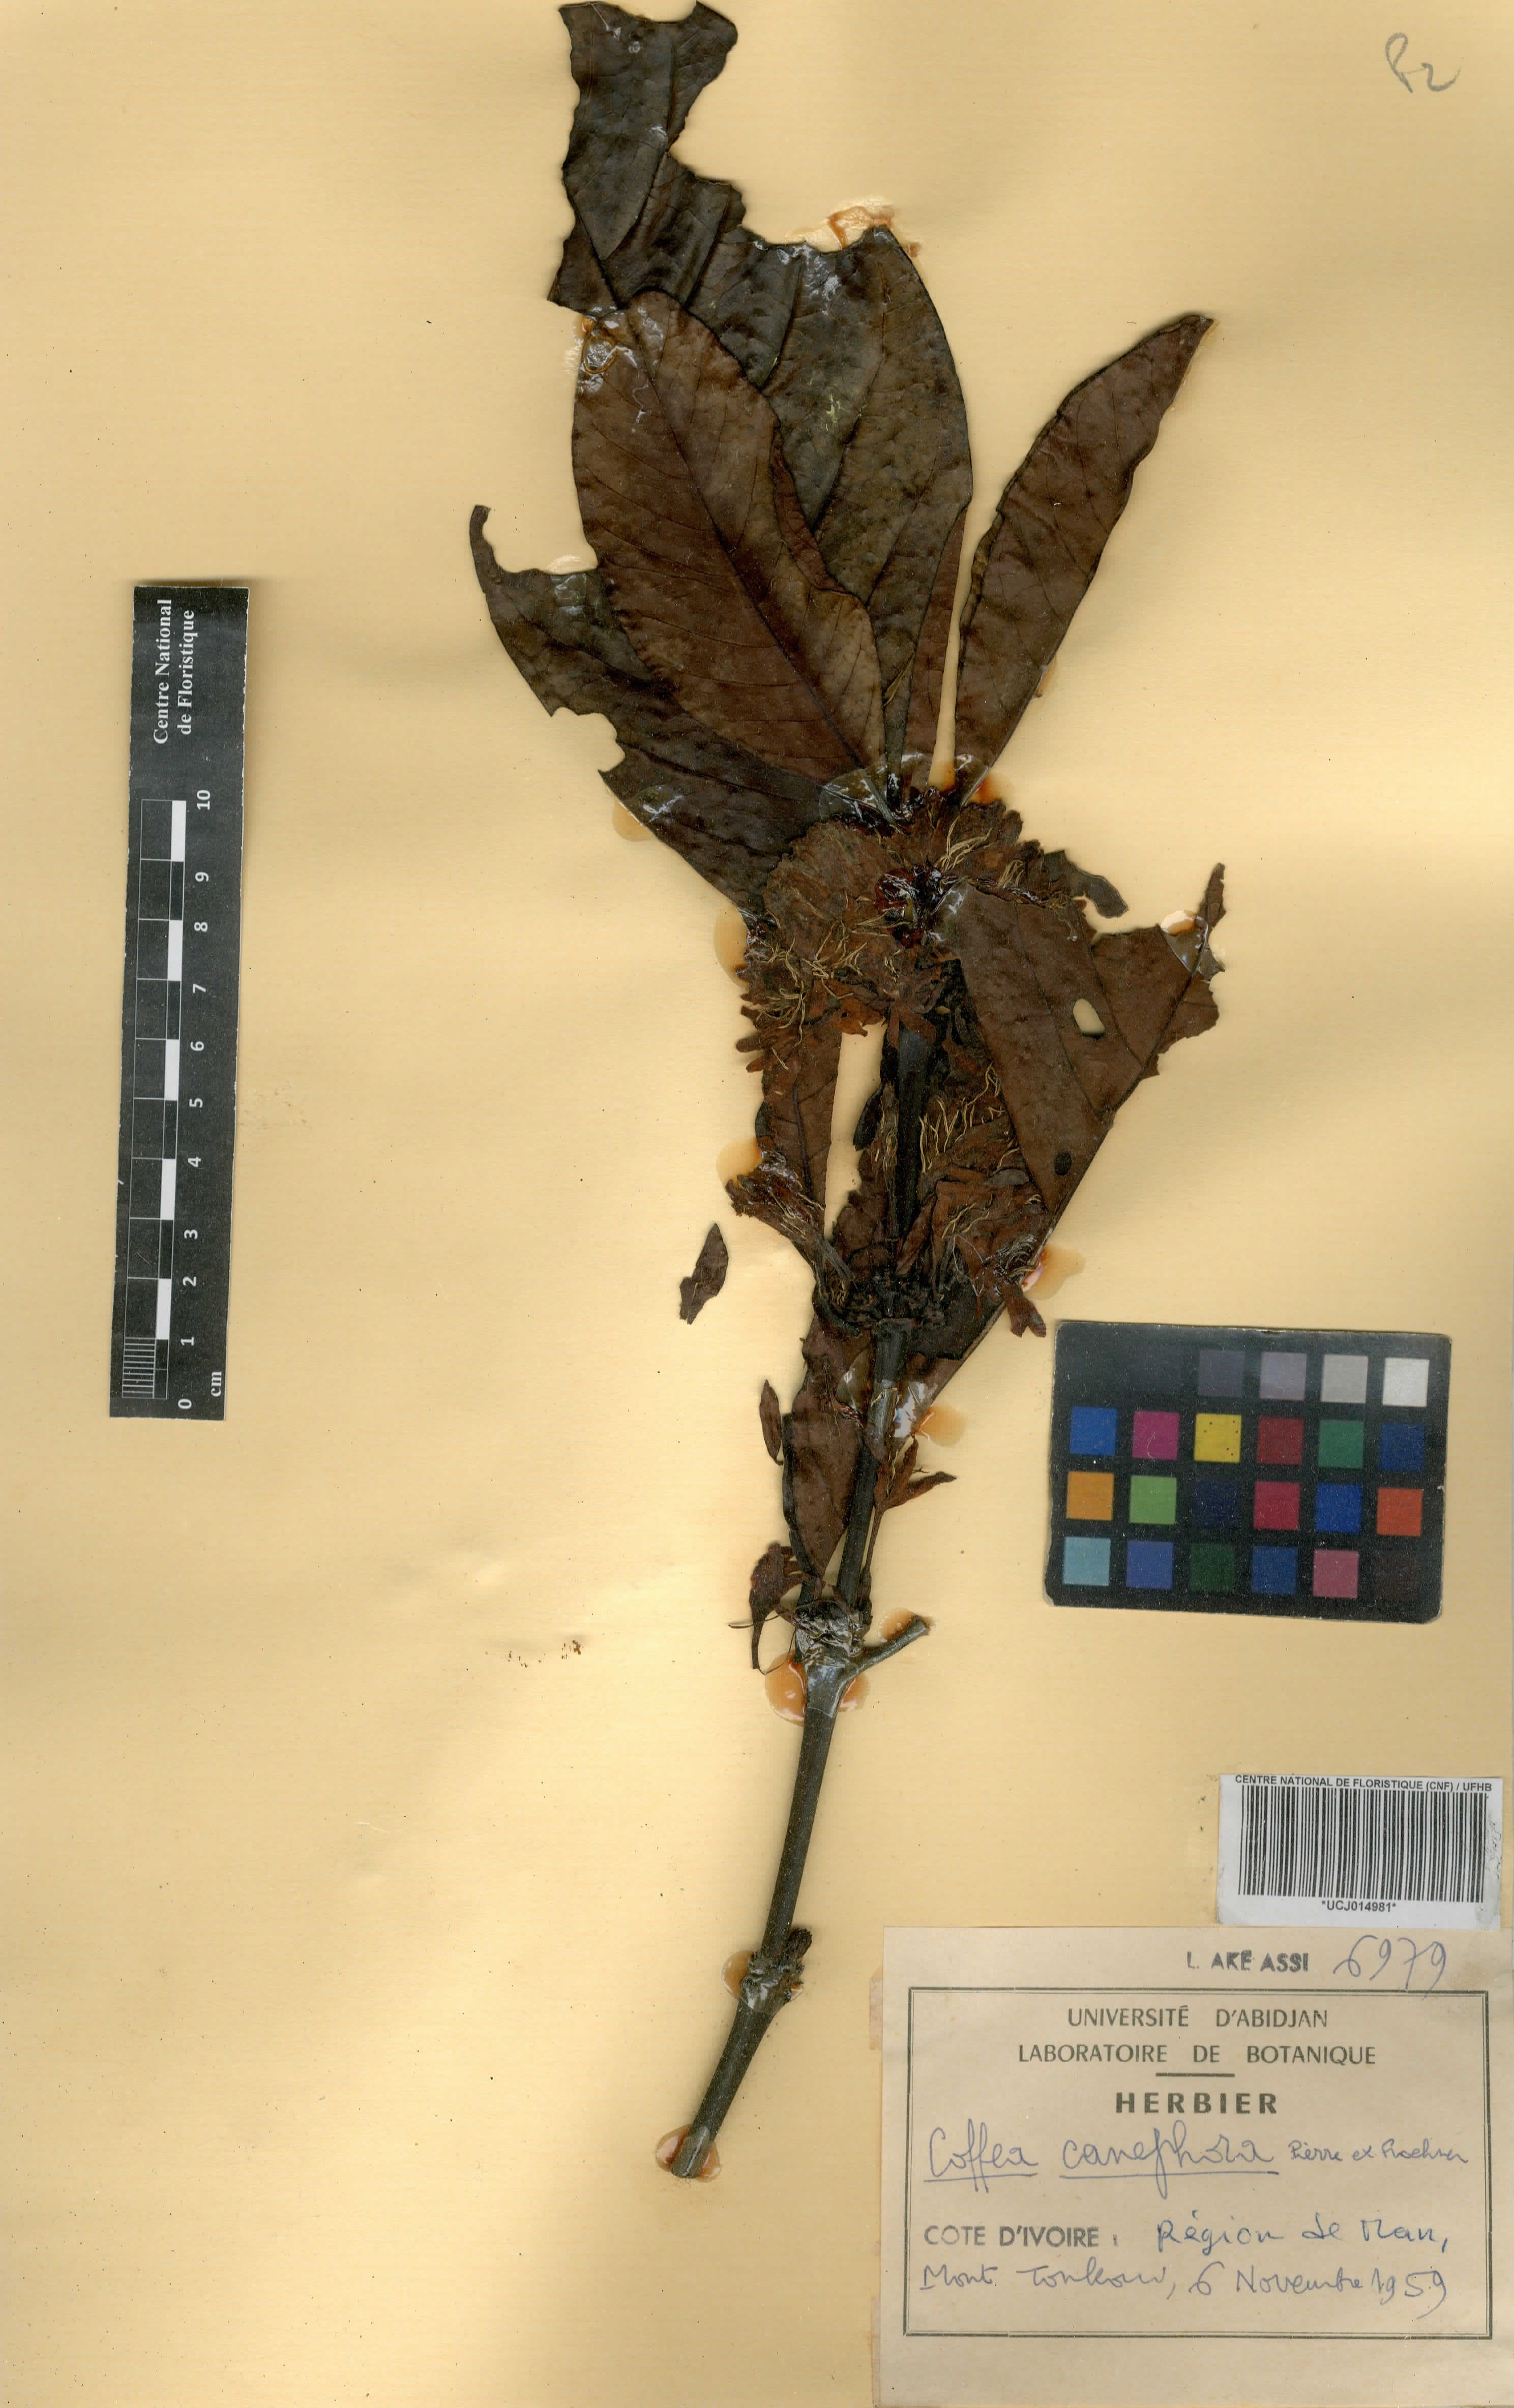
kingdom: Plantae
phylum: Tracheophyta
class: Magnoliopsida
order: Gentianales
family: Rubiaceae
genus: Coffea
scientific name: Coffea canephora
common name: Robusta coffee
